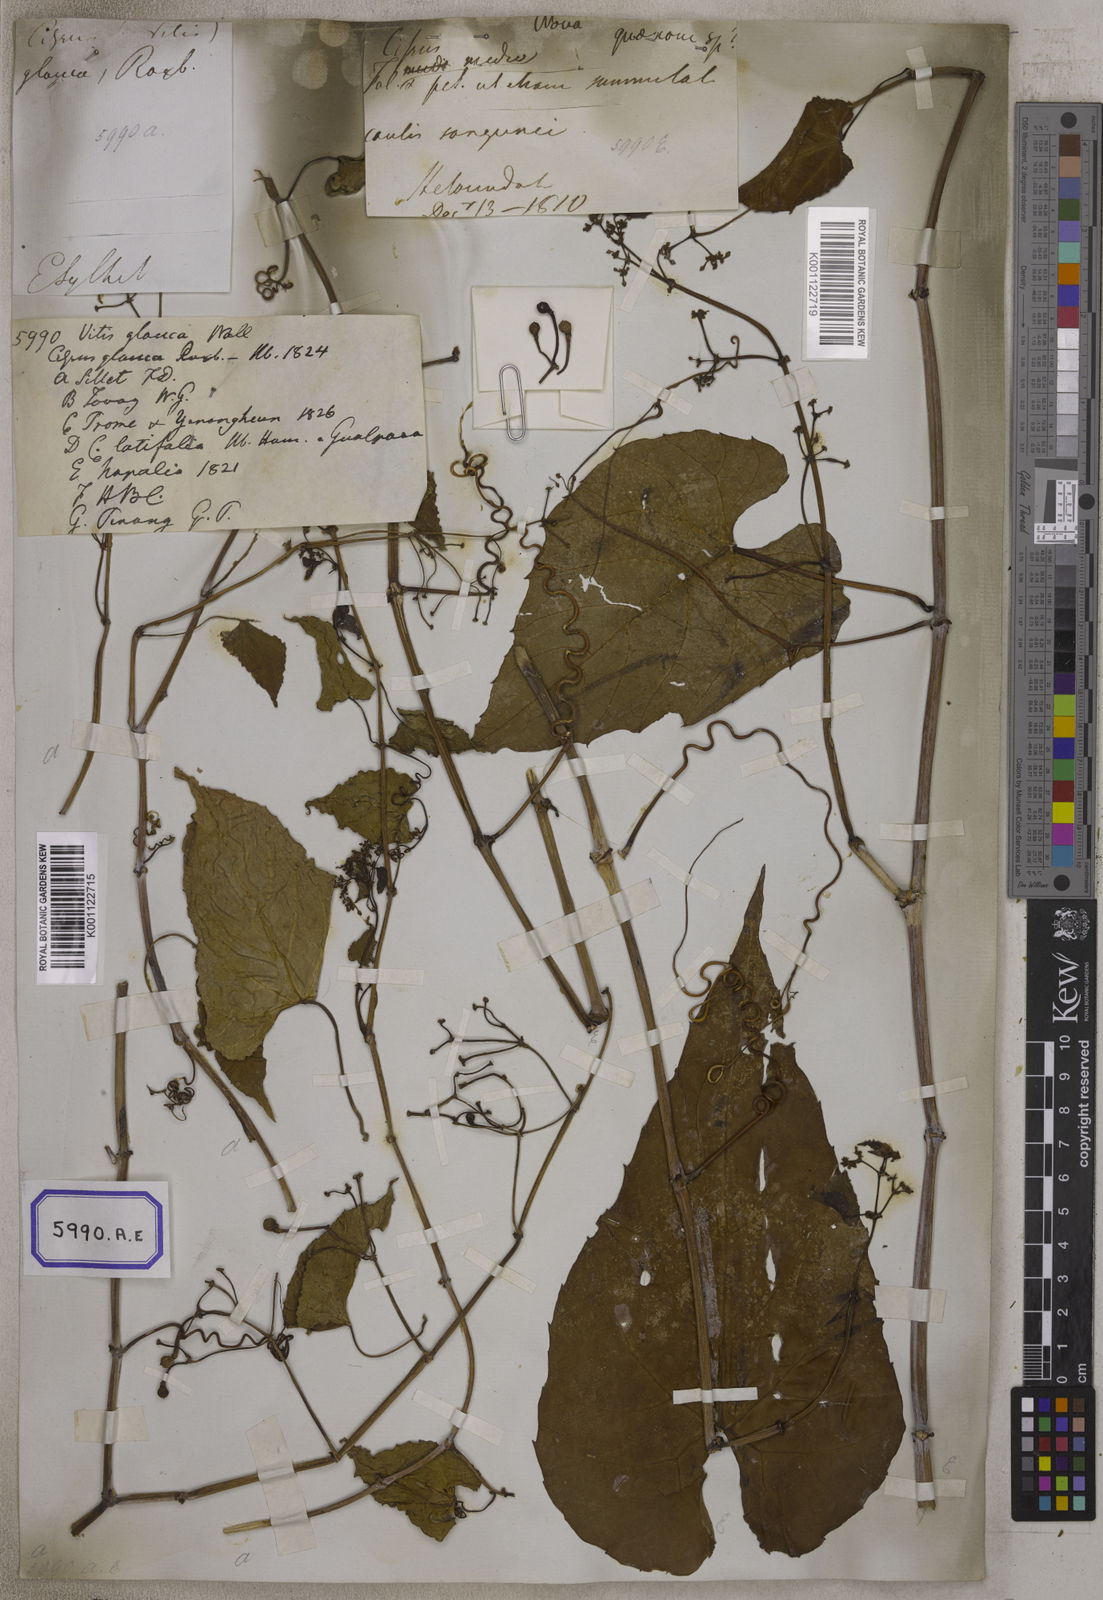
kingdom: Plantae
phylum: Tracheophyta
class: Magnoliopsida
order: Vitales
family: Vitaceae
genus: Cissus
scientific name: Cissus repens
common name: Cissus
